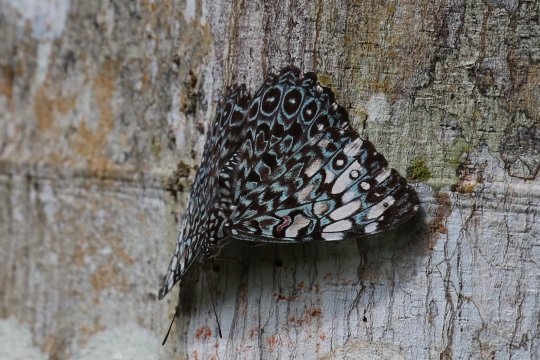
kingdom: Animalia
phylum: Arthropoda
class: Insecta
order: Lepidoptera
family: Nymphalidae
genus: Hamadryas
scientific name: Hamadryas feronia
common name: Variable Cracker
